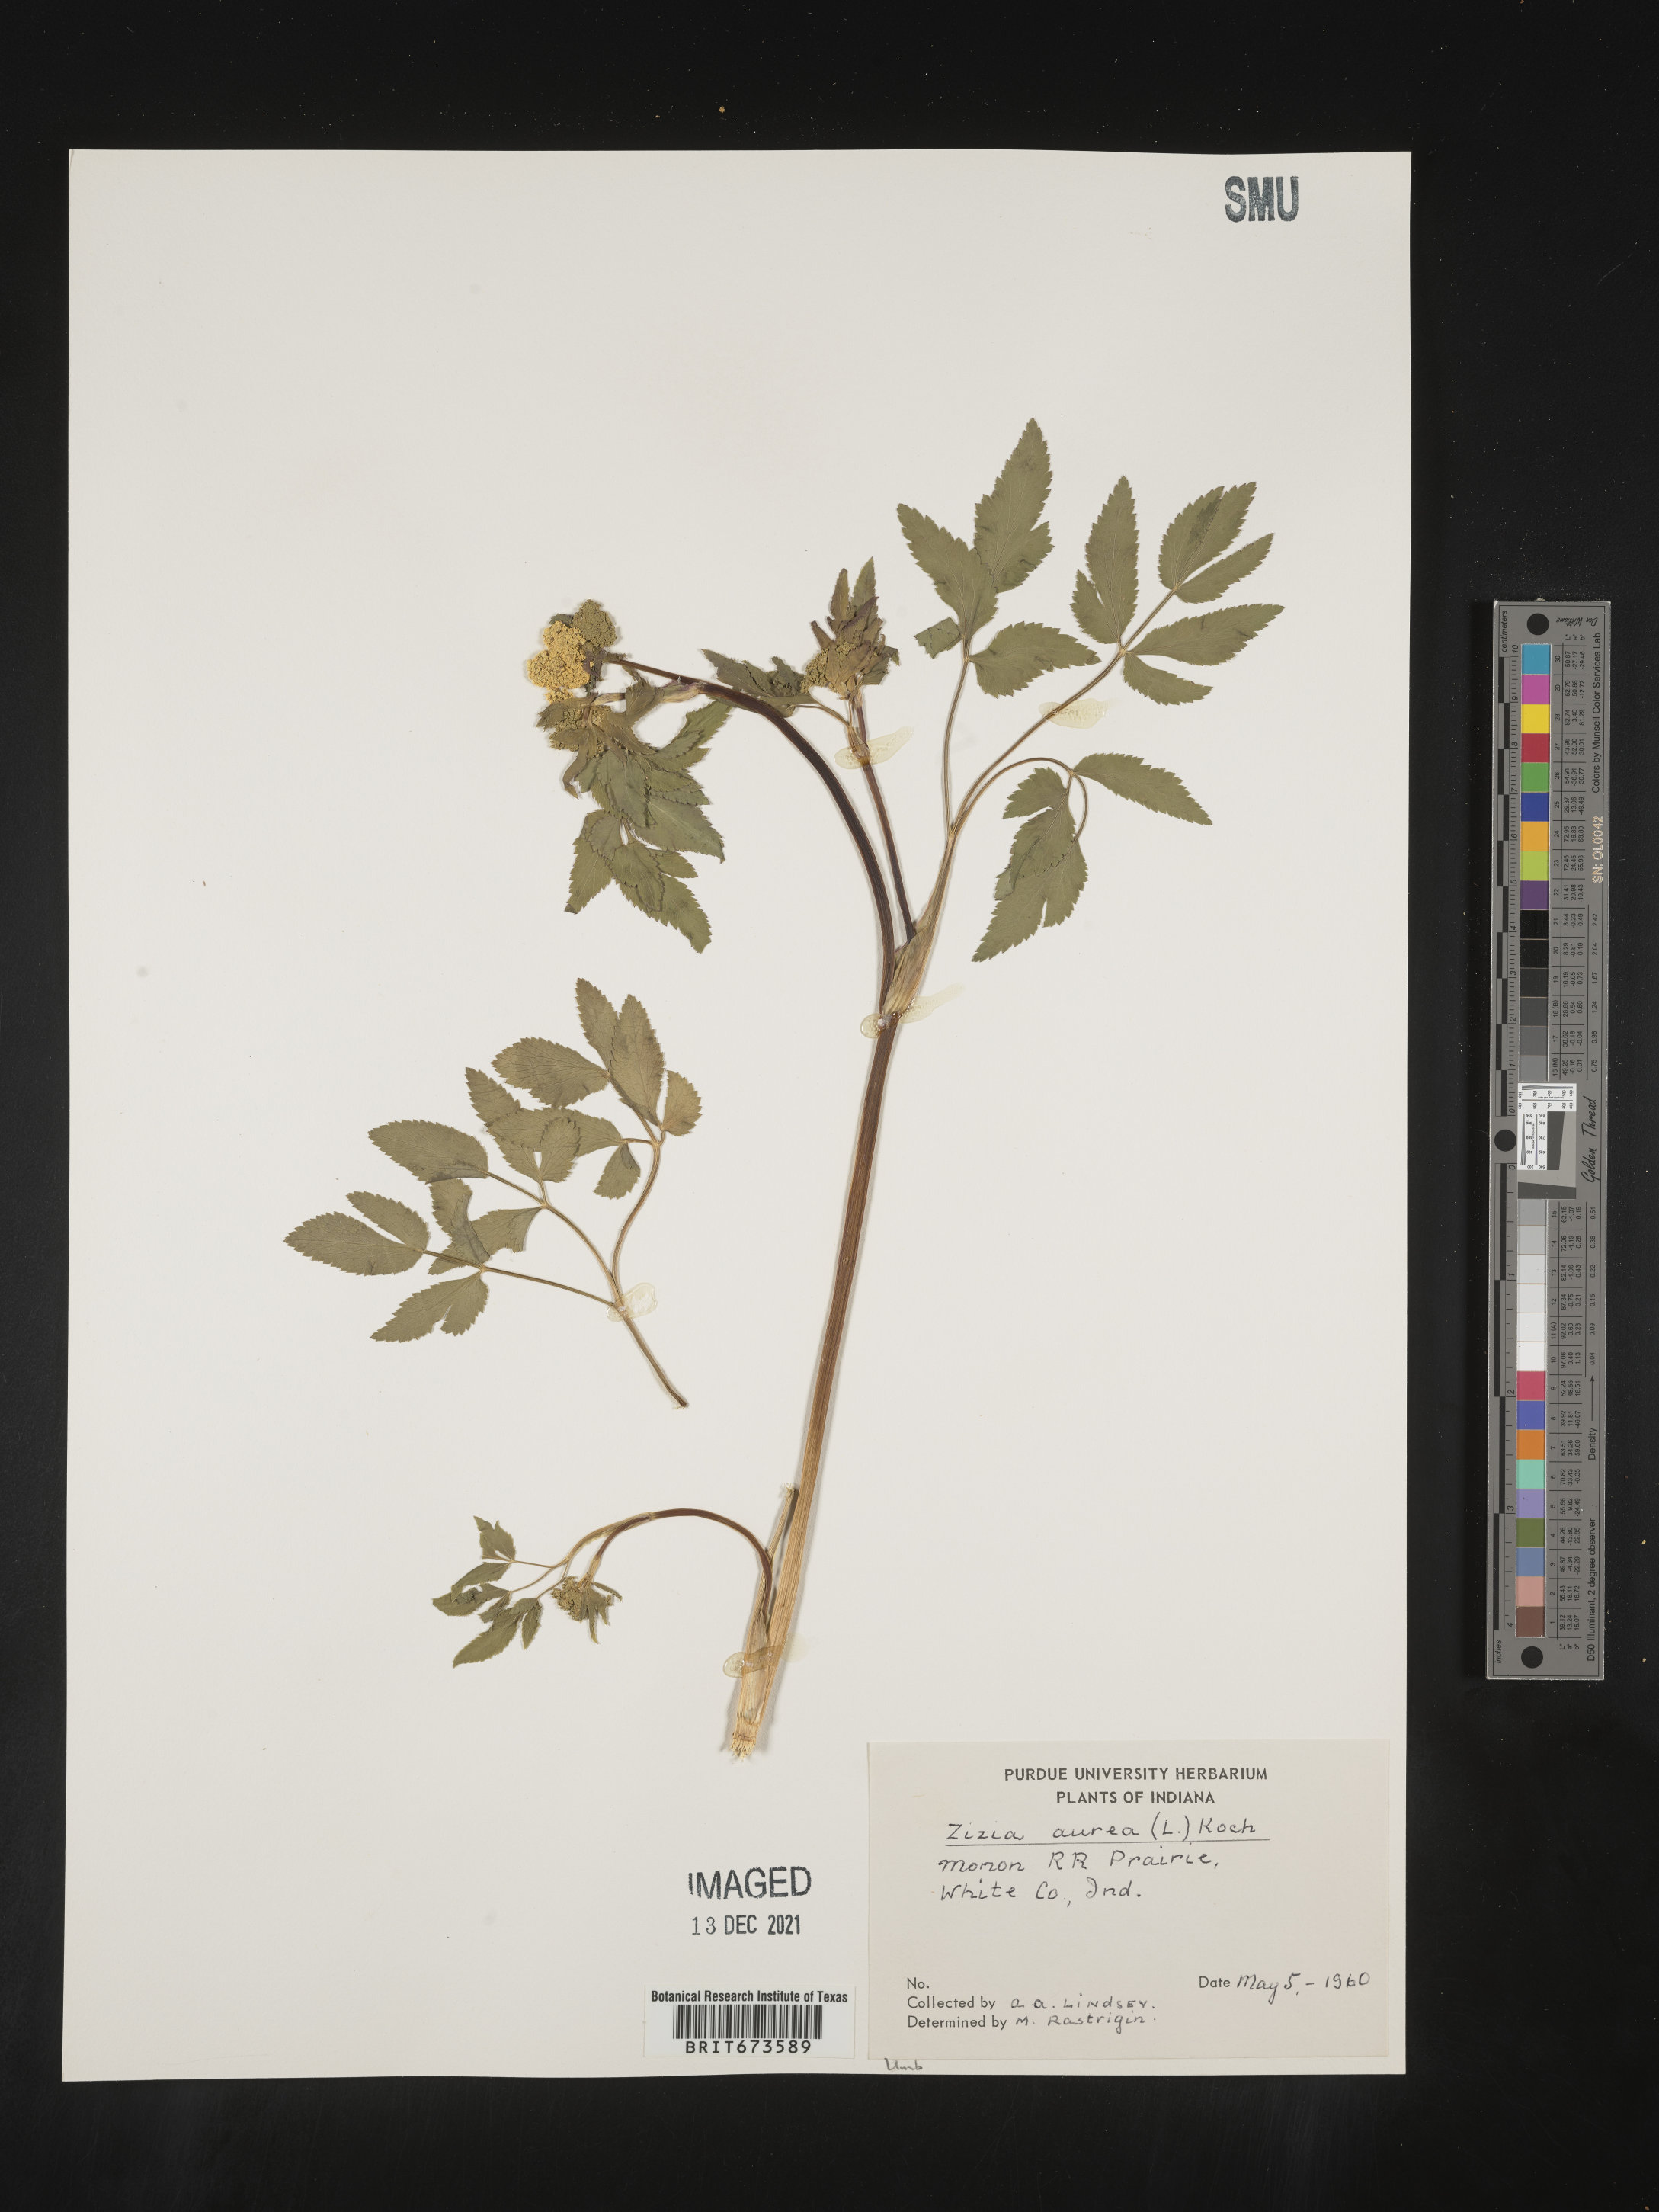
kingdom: Plantae
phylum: Tracheophyta
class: Magnoliopsida
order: Apiales
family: Apiaceae
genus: Zizia
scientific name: Zizia aurea
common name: Golden alexanders
